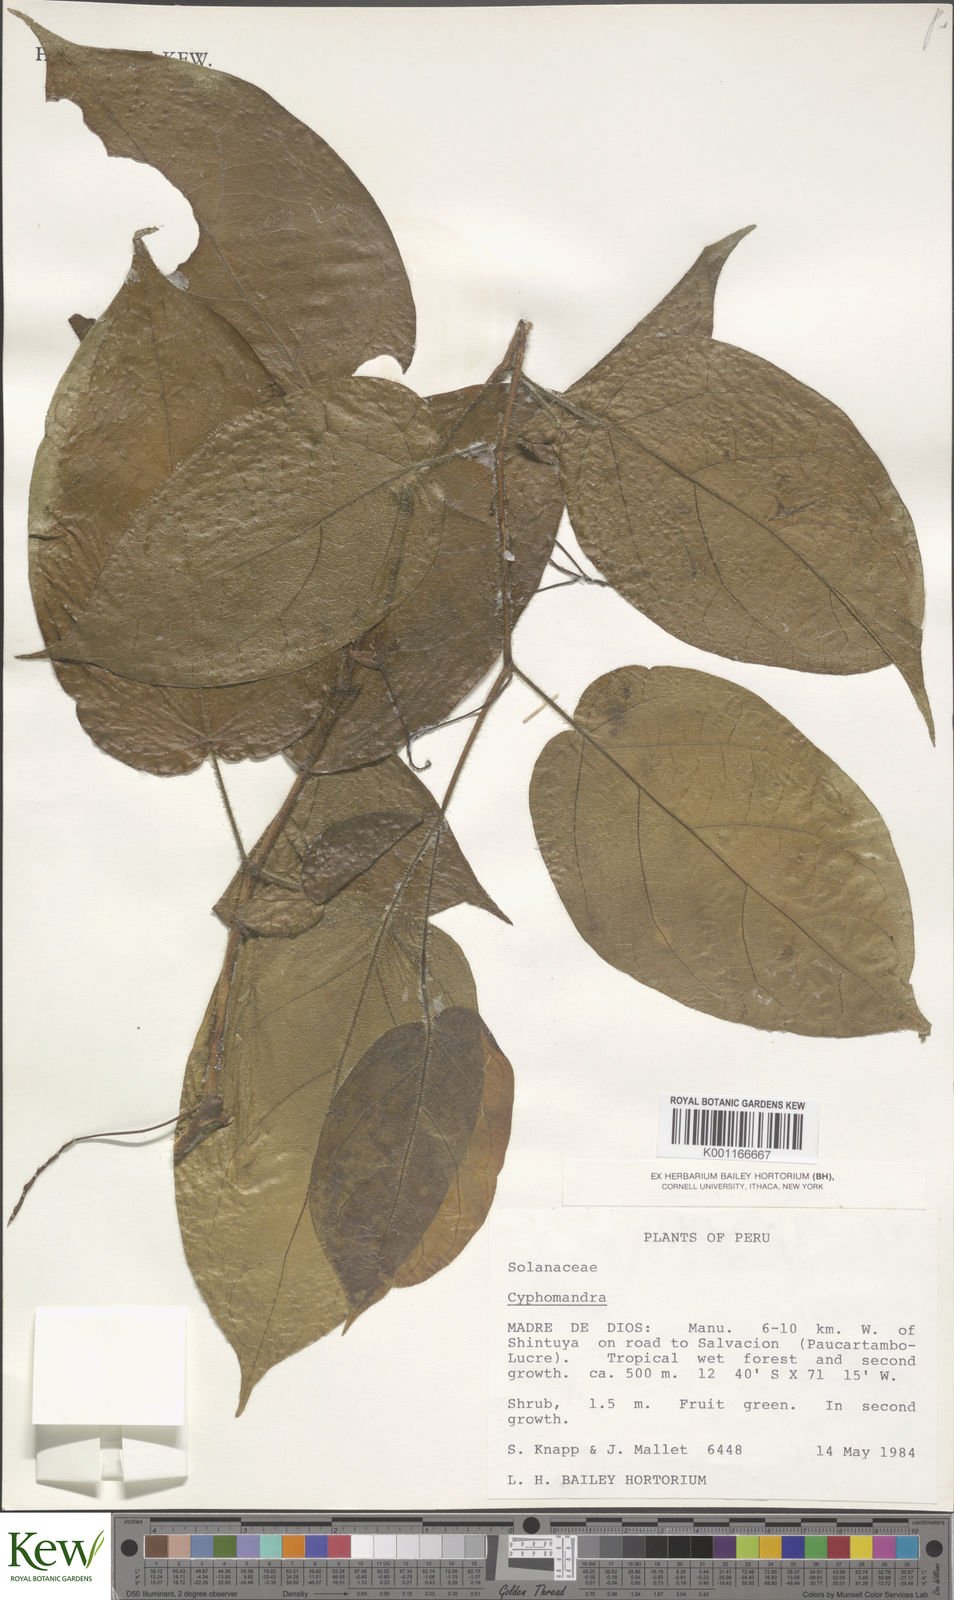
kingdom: Plantae
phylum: Tracheophyta
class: Magnoliopsida
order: Solanales
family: Solanaceae
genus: Solanum
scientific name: Solanum
